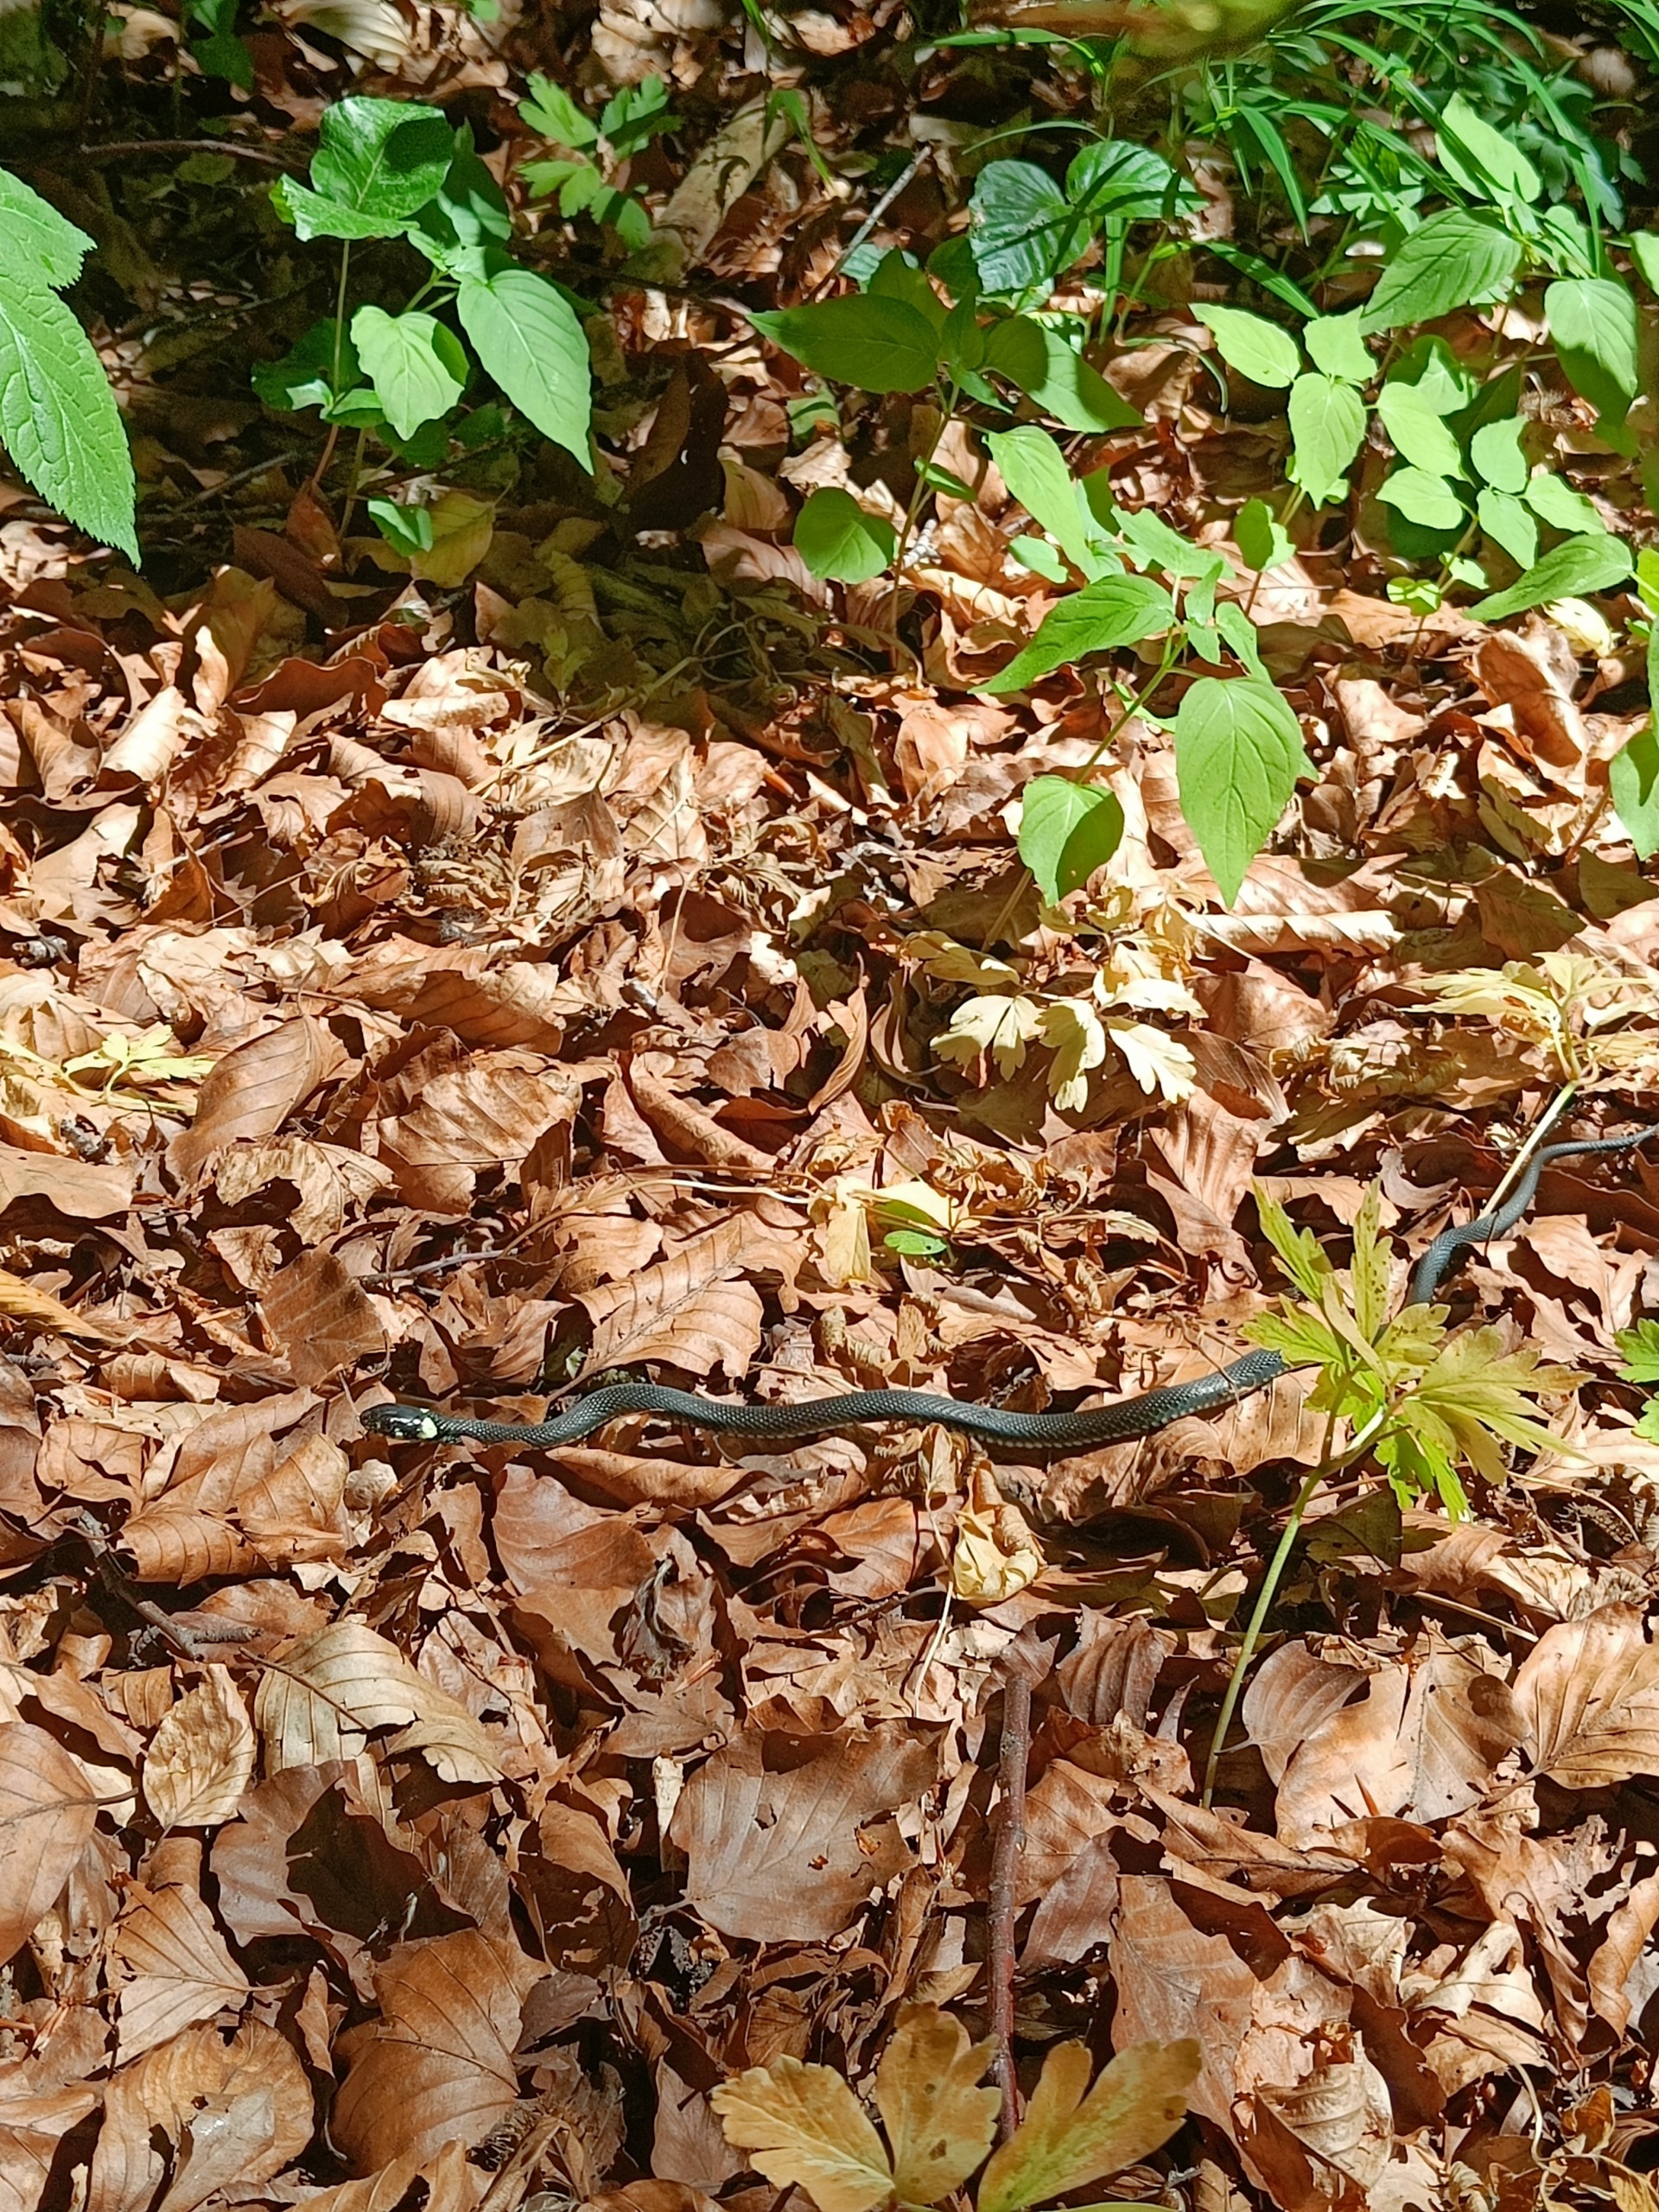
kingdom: Animalia
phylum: Chordata
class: Squamata
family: Colubridae
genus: Natrix
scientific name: Natrix natrix
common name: Snog
